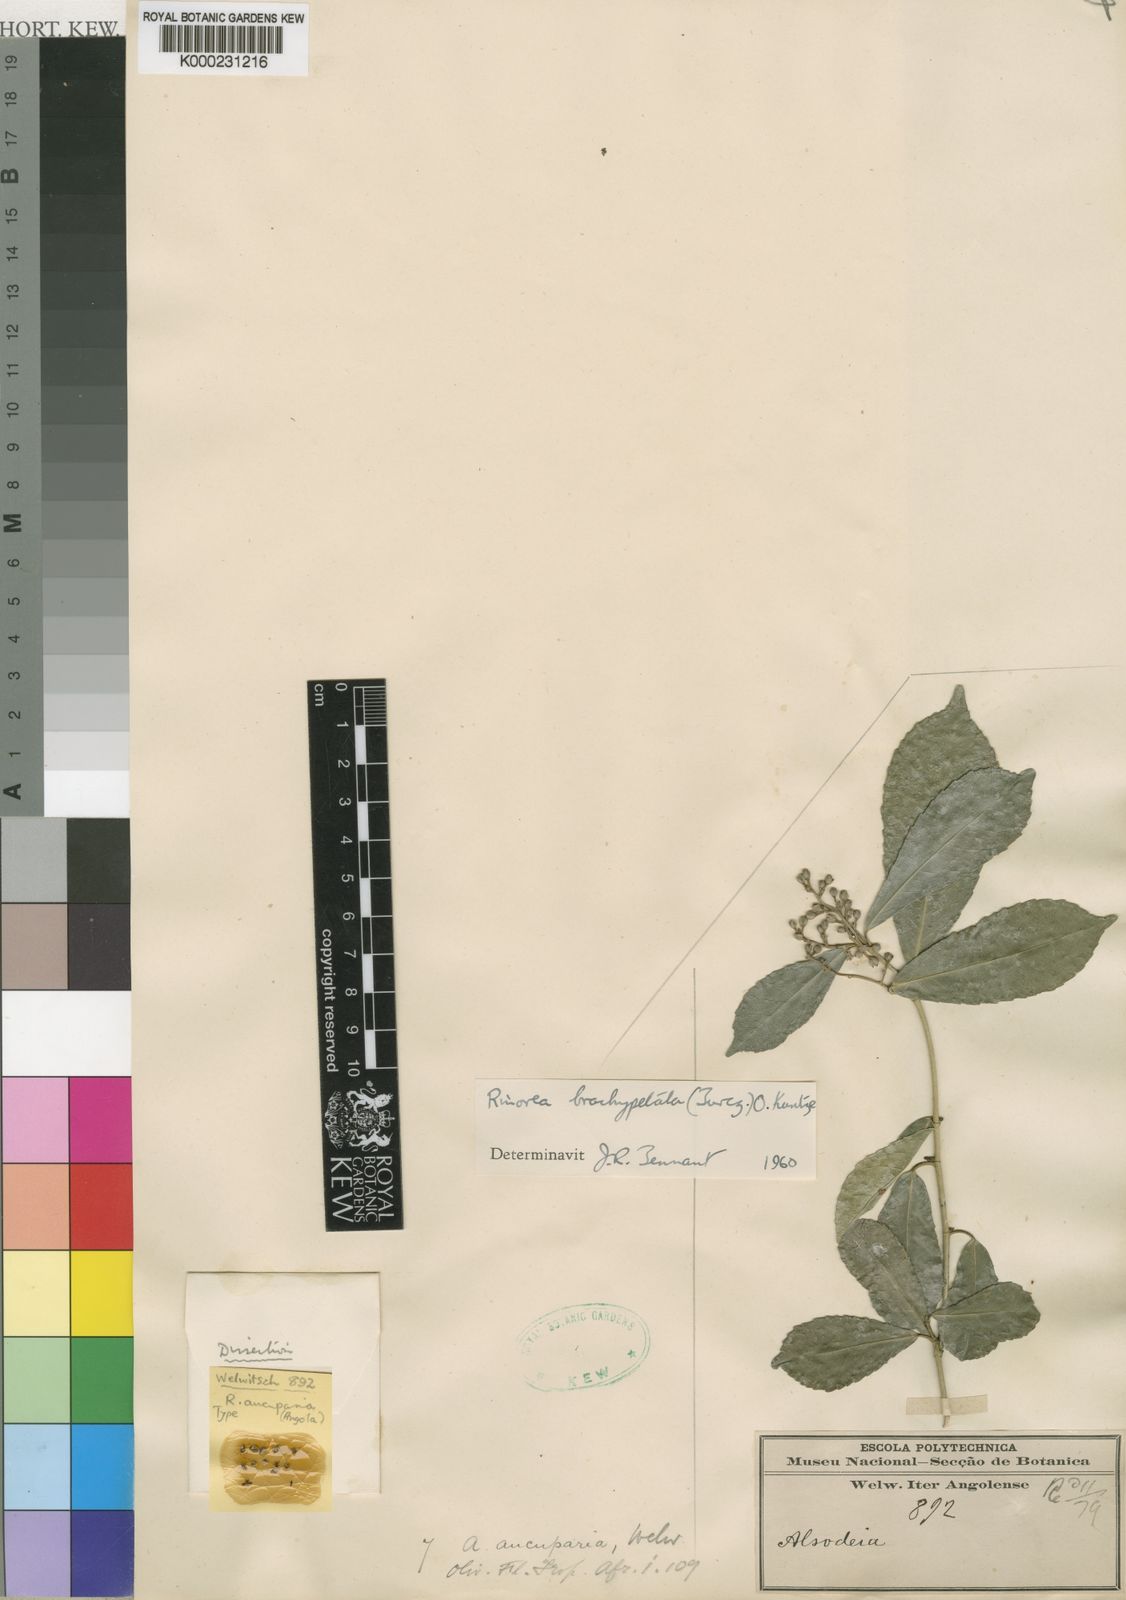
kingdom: Plantae
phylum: Tracheophyta
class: Magnoliopsida
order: Malpighiales
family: Violaceae
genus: Rinorea
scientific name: Rinorea brachypetala
